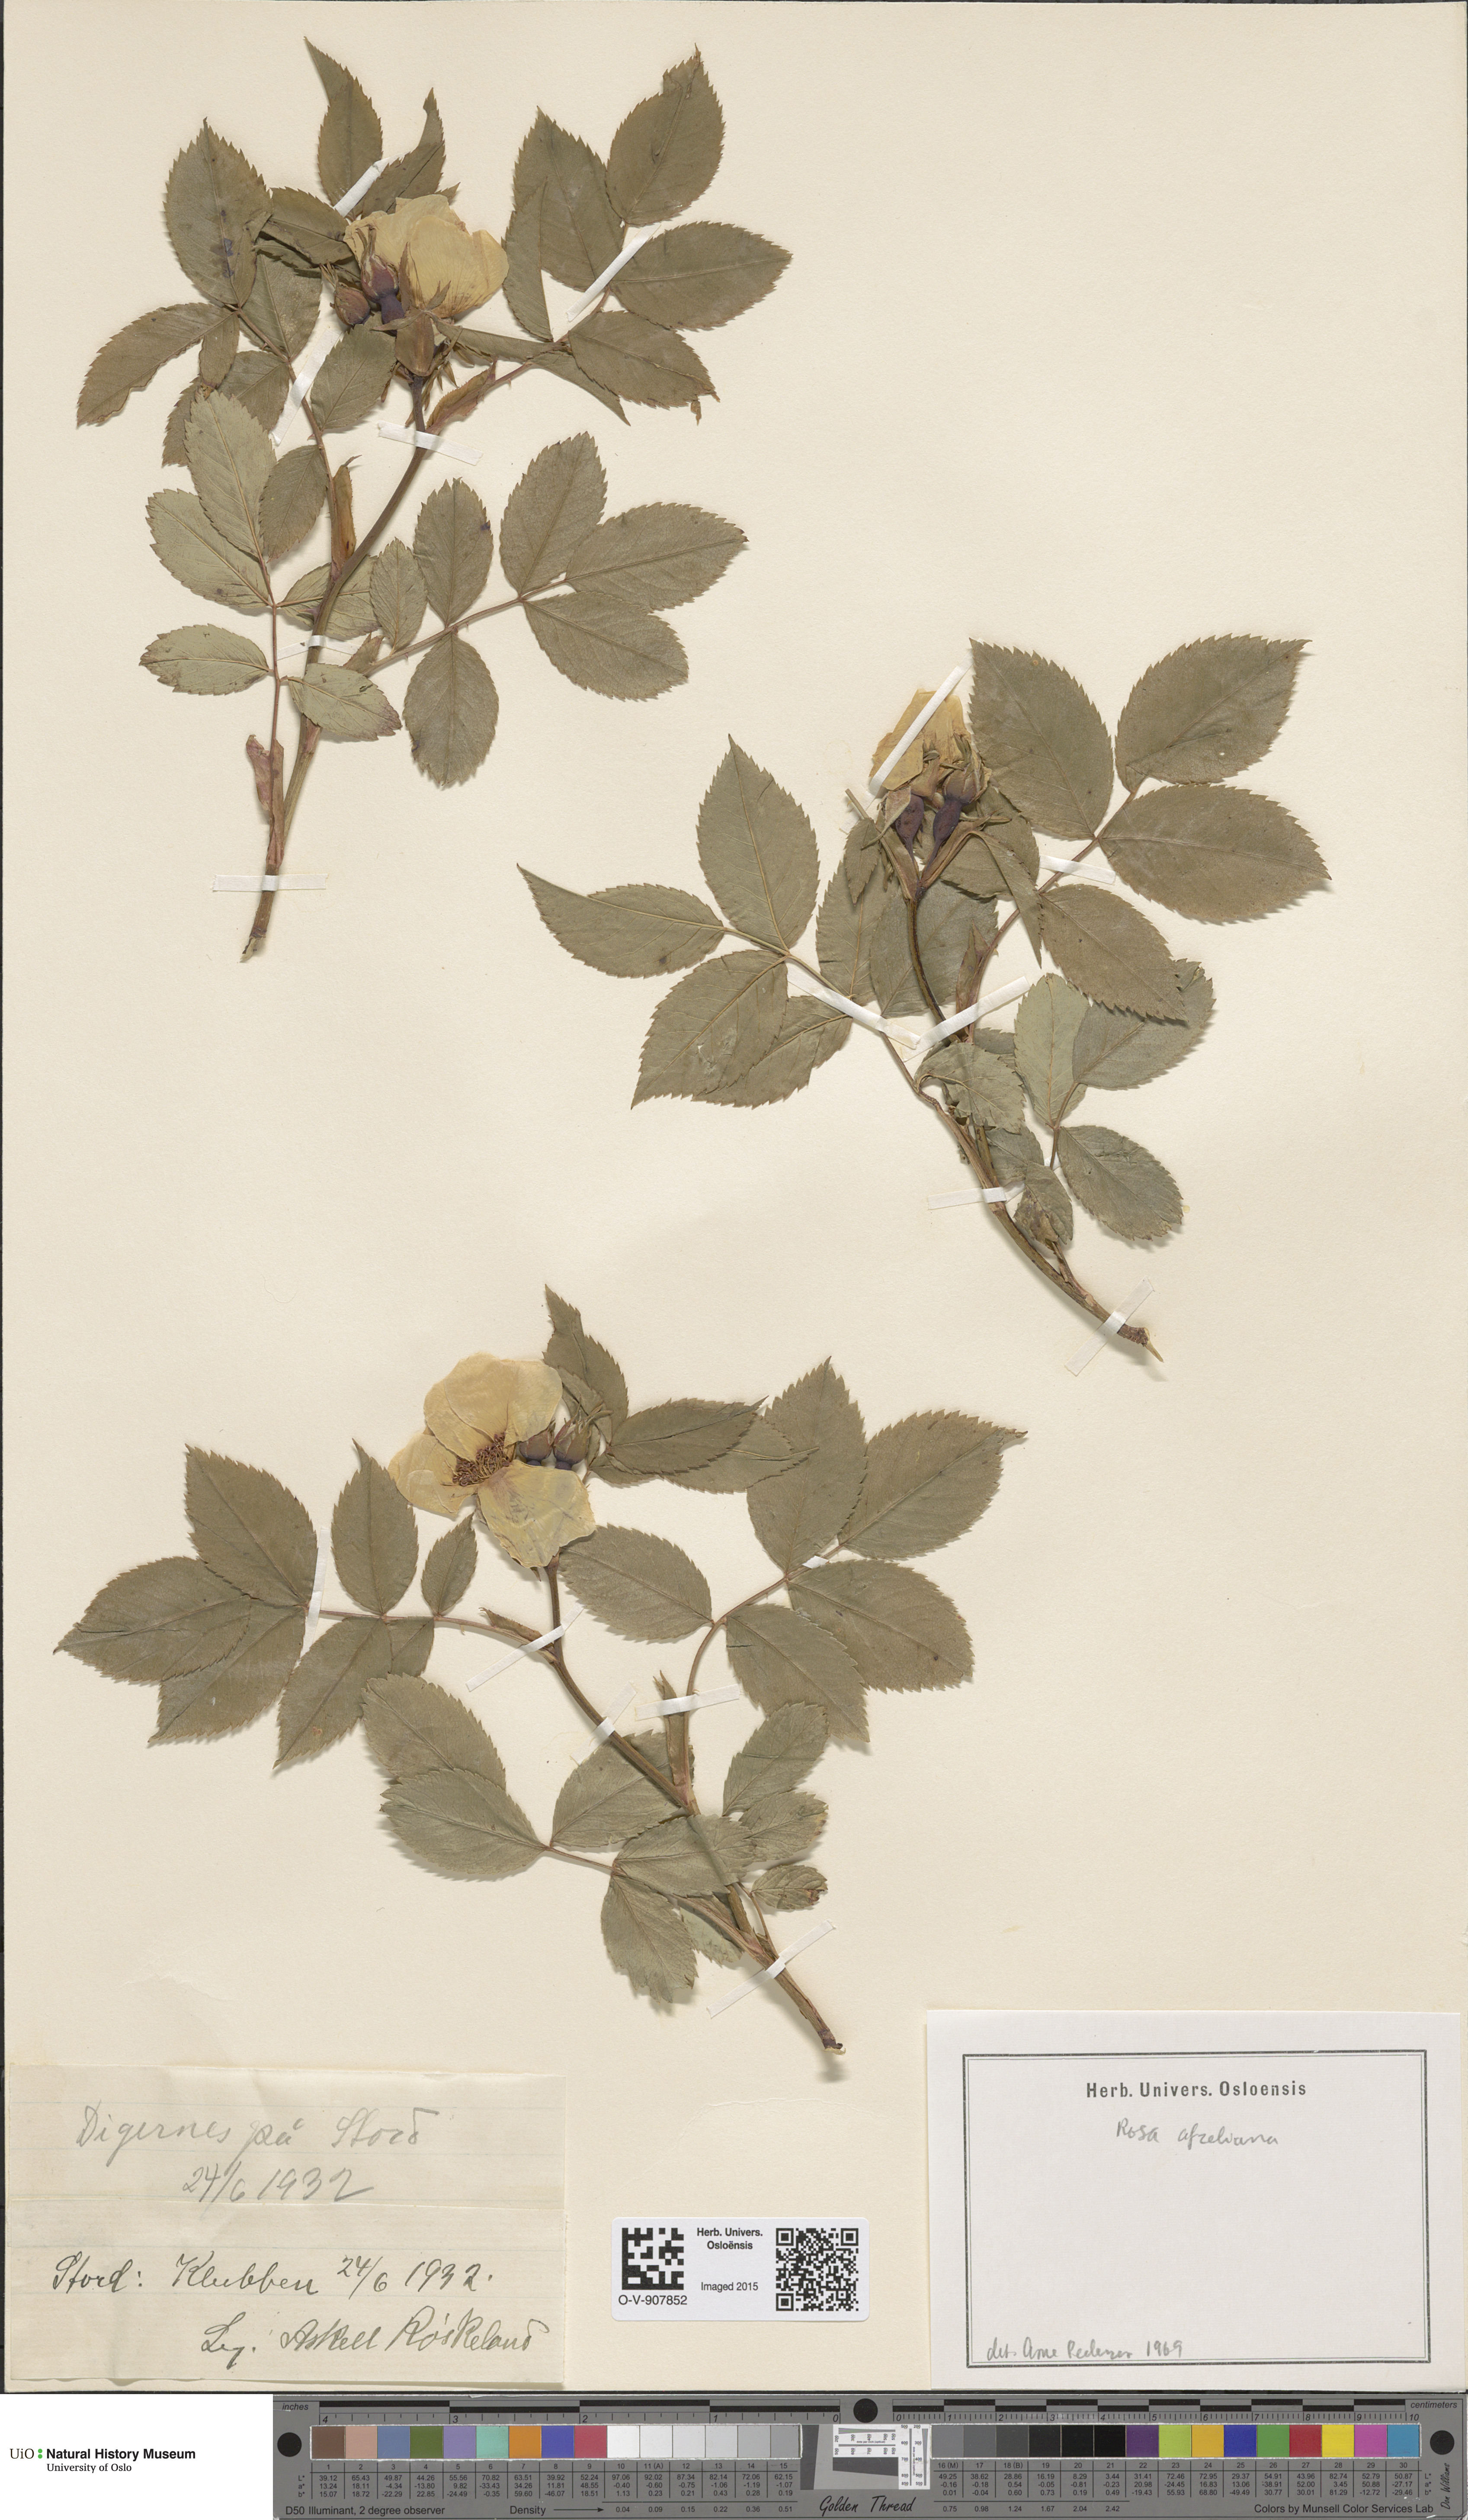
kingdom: Plantae
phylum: Tracheophyta
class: Magnoliopsida
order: Rosales
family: Rosaceae
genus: Rosa
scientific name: Rosa
